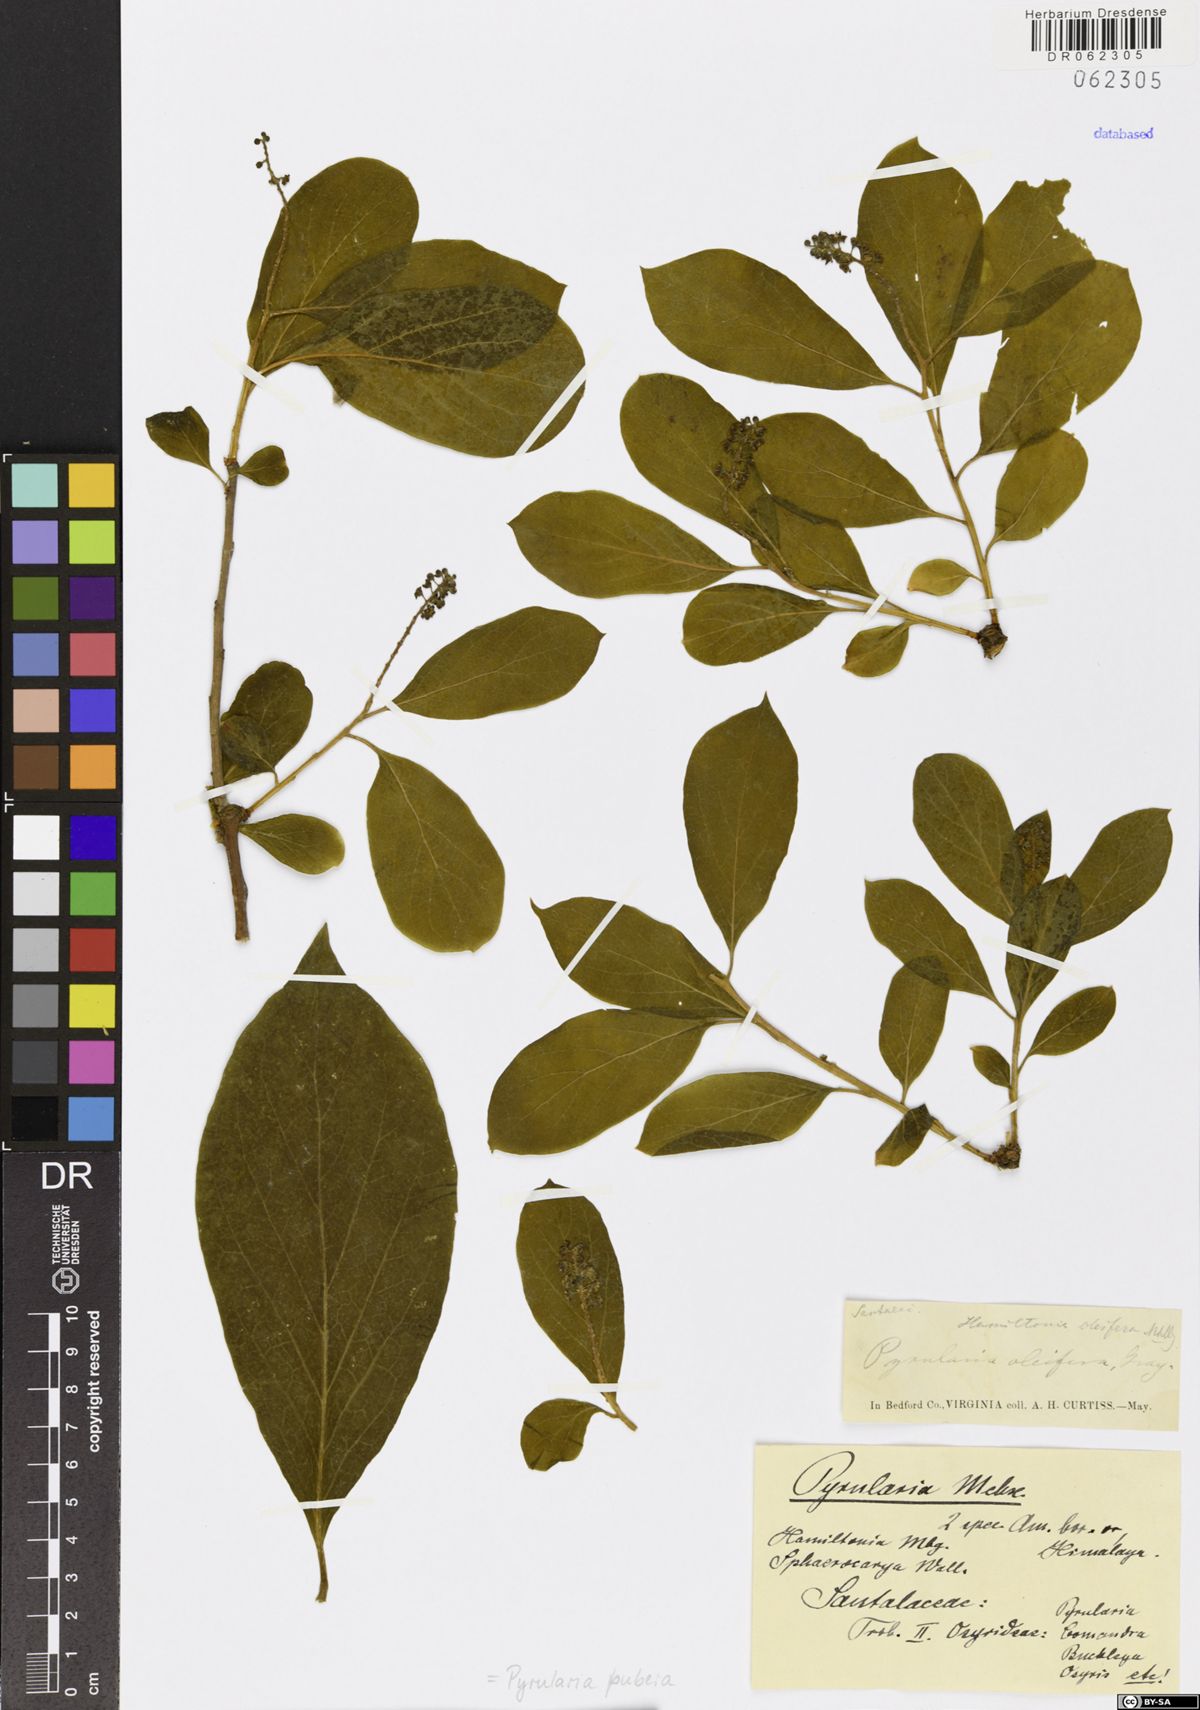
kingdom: Plantae
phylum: Tracheophyta
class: Magnoliopsida
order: Santalales
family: Cervantesiaceae
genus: Pyrularia
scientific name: Pyrularia pubera
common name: Oilnut
